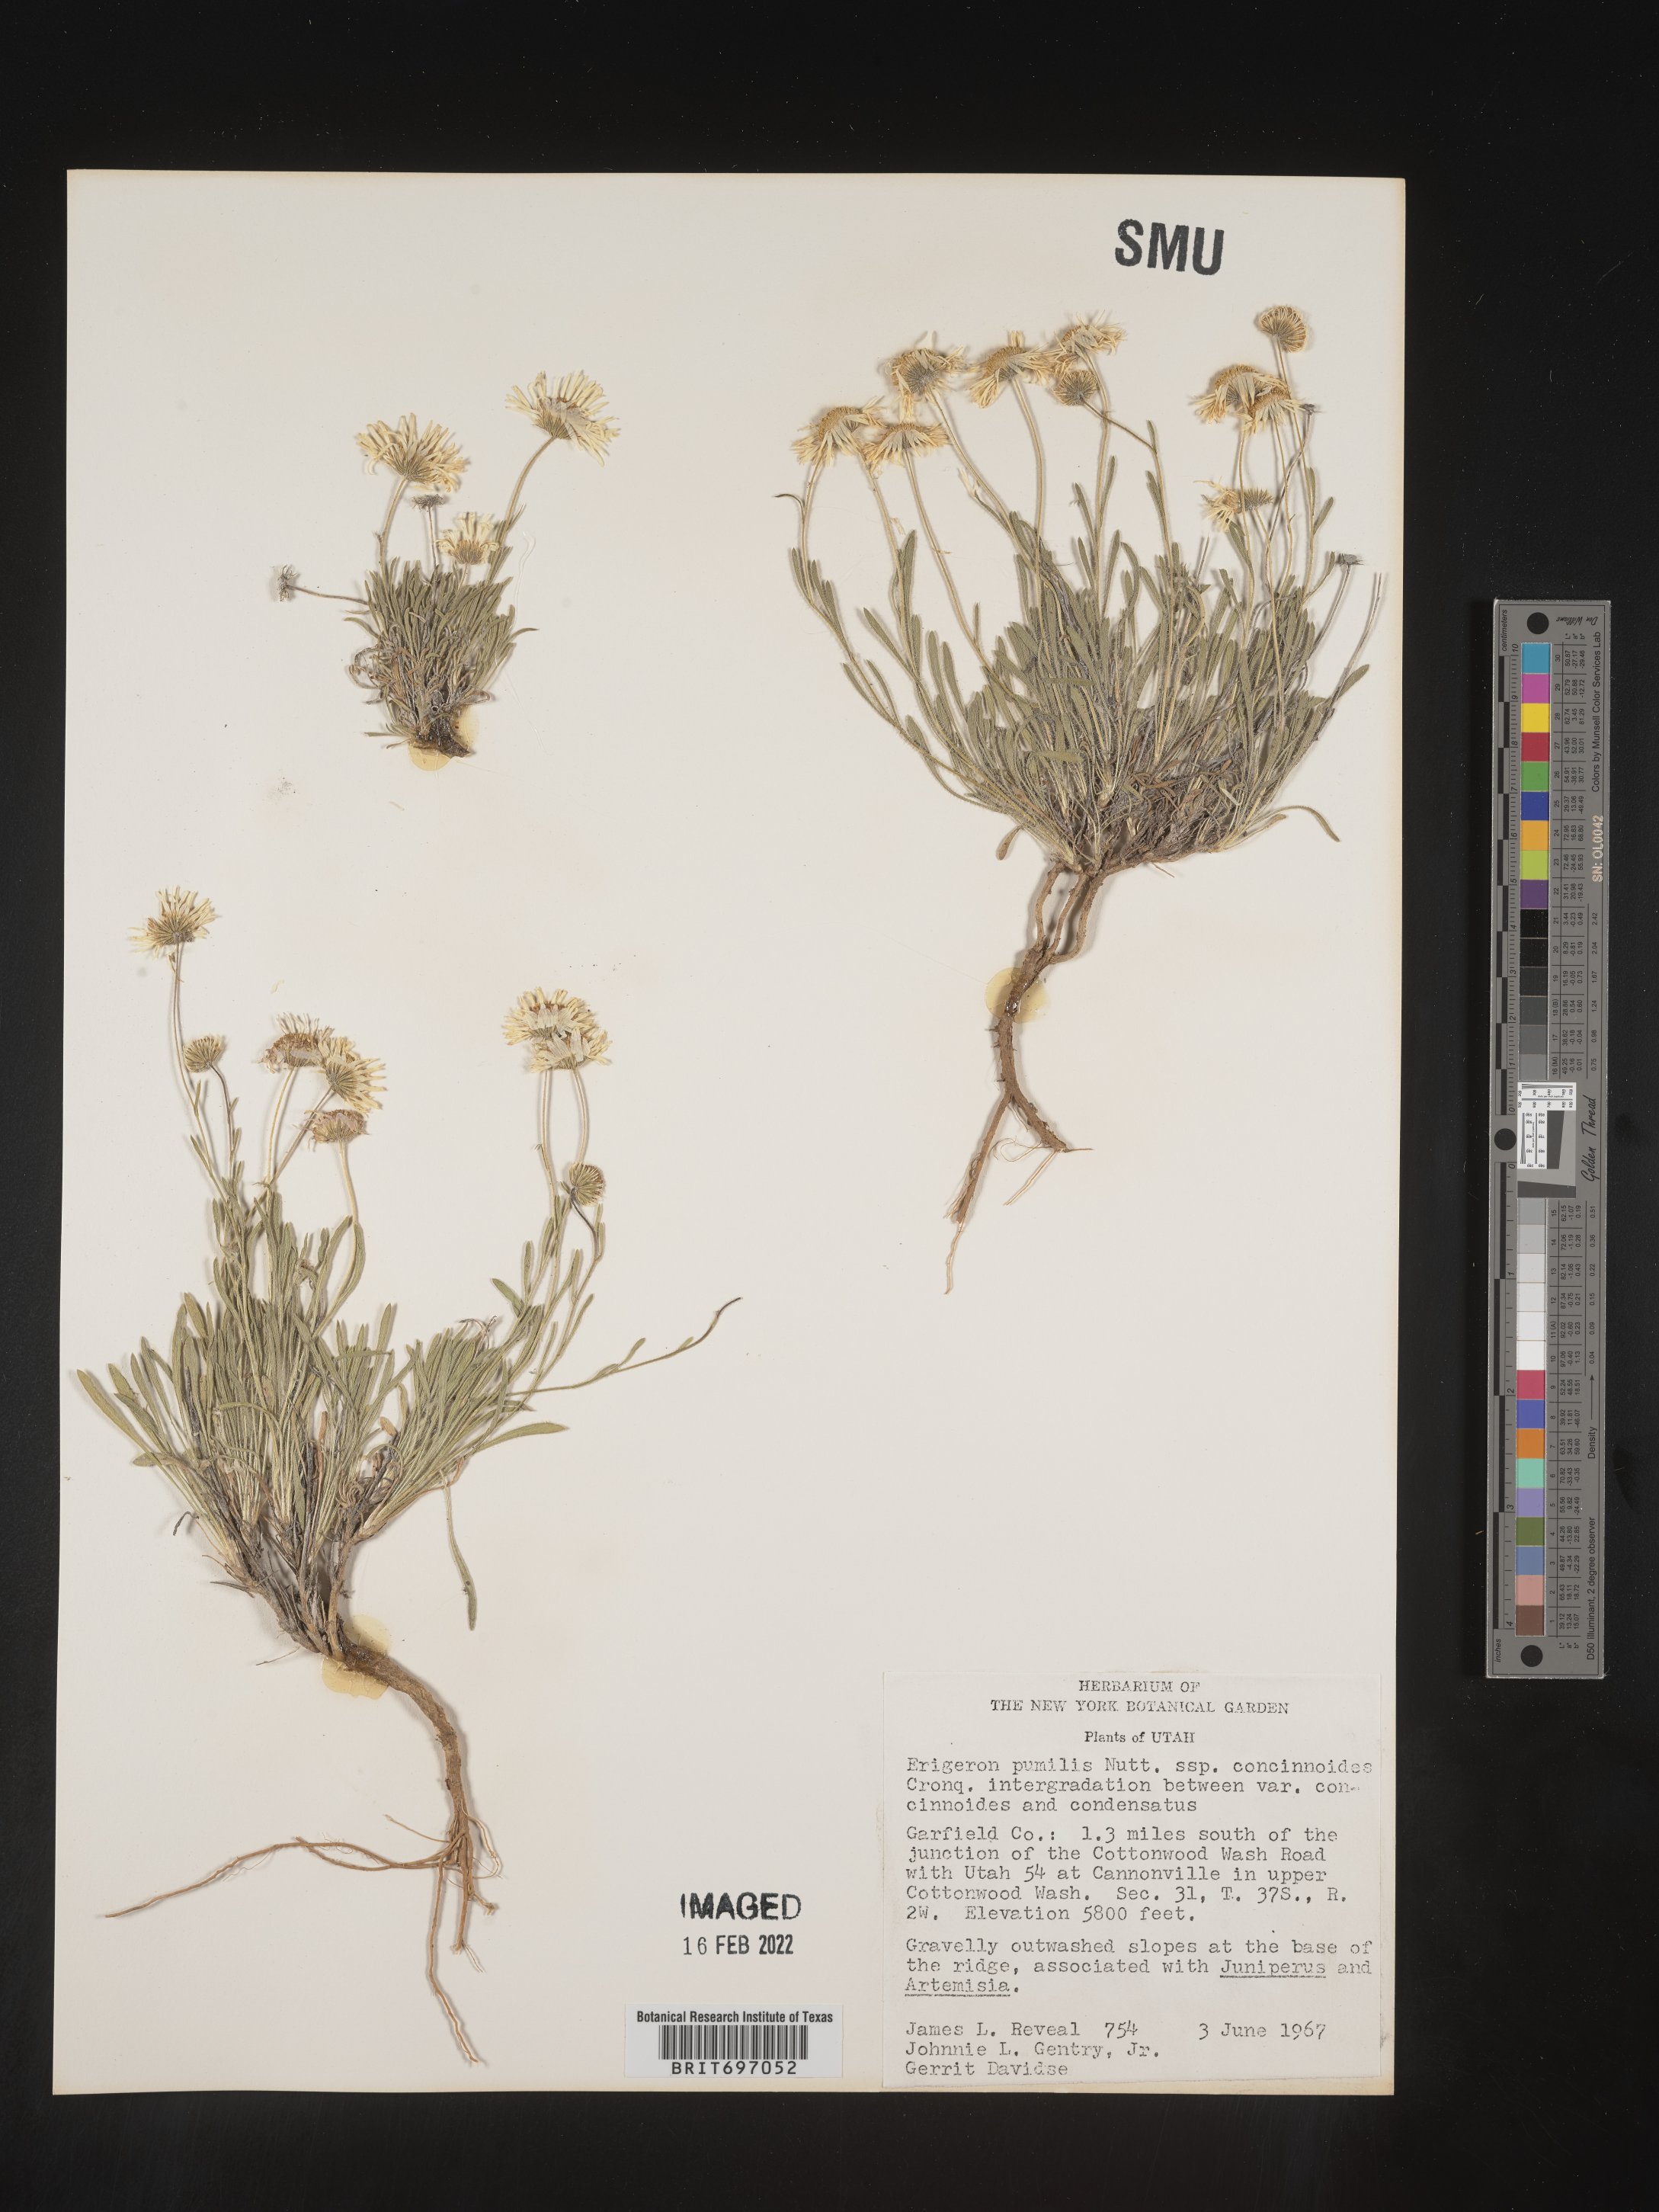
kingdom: Plantae
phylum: Tracheophyta
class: Magnoliopsida
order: Asterales
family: Asteraceae
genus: Erigeron
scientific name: Erigeron concinnus
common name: Navajo fleabane
